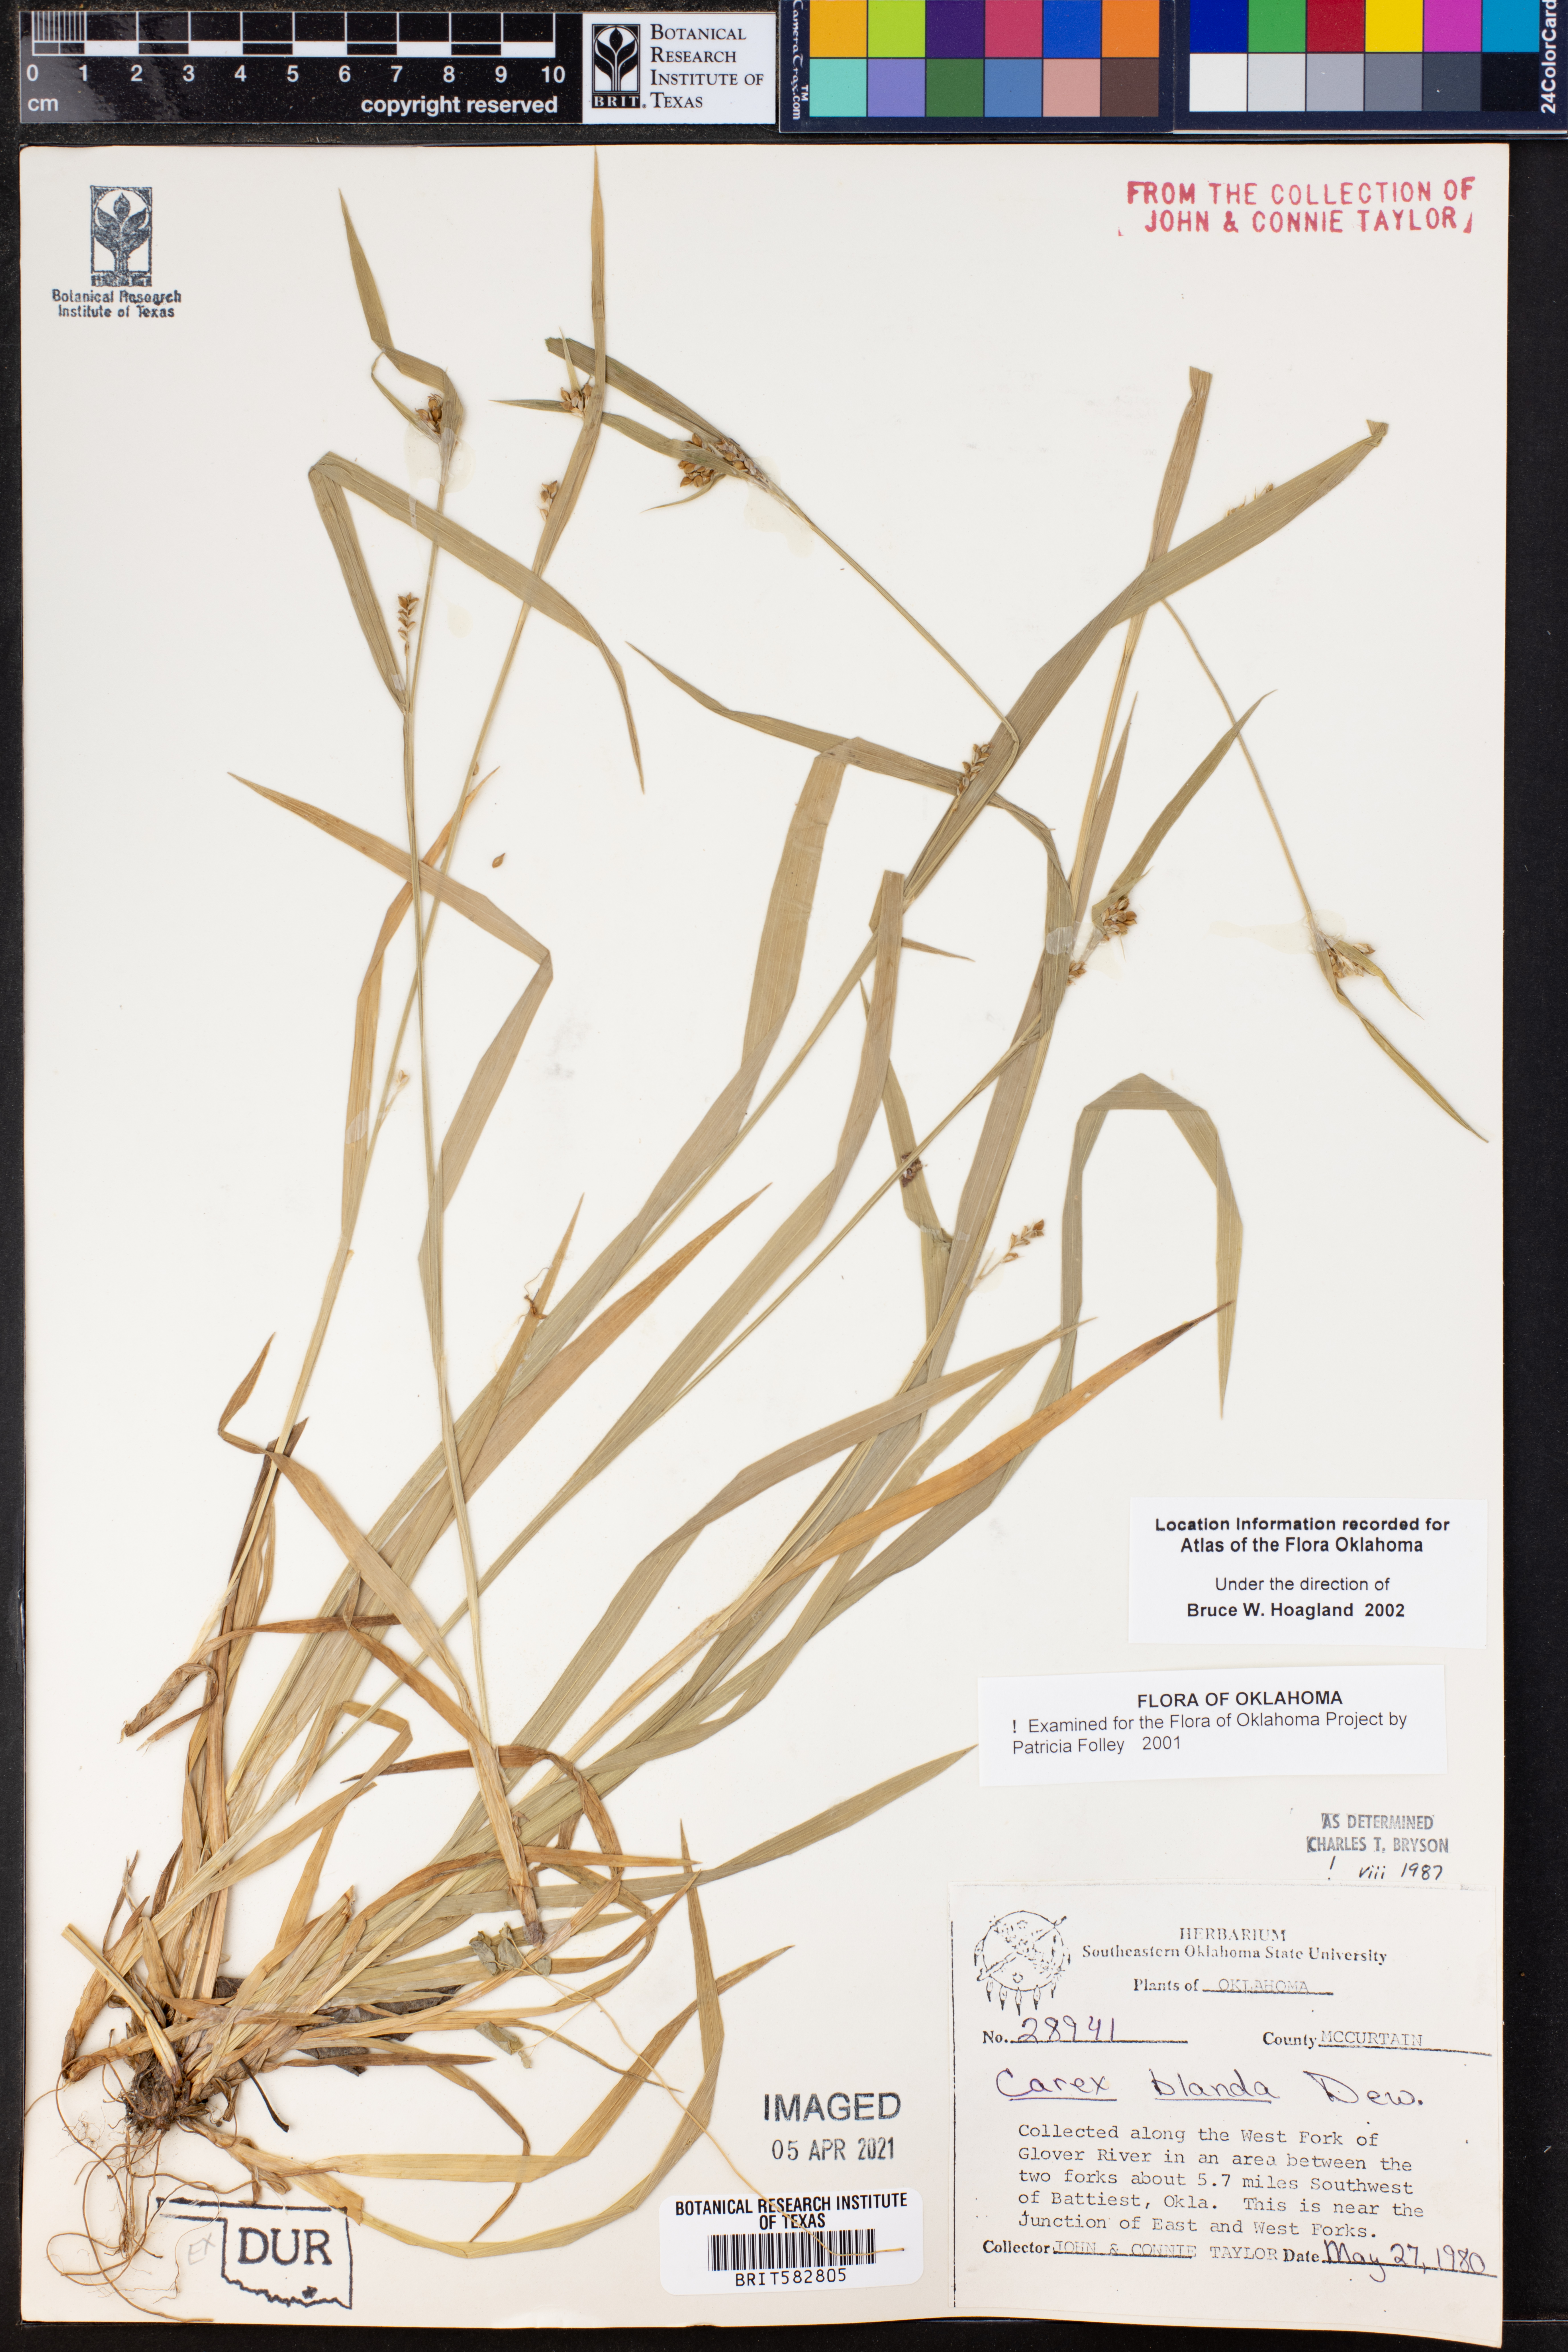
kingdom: Plantae
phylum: Tracheophyta
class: Liliopsida
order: Poales
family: Cyperaceae
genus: Carex
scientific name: Carex blanda
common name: Bland sedge
